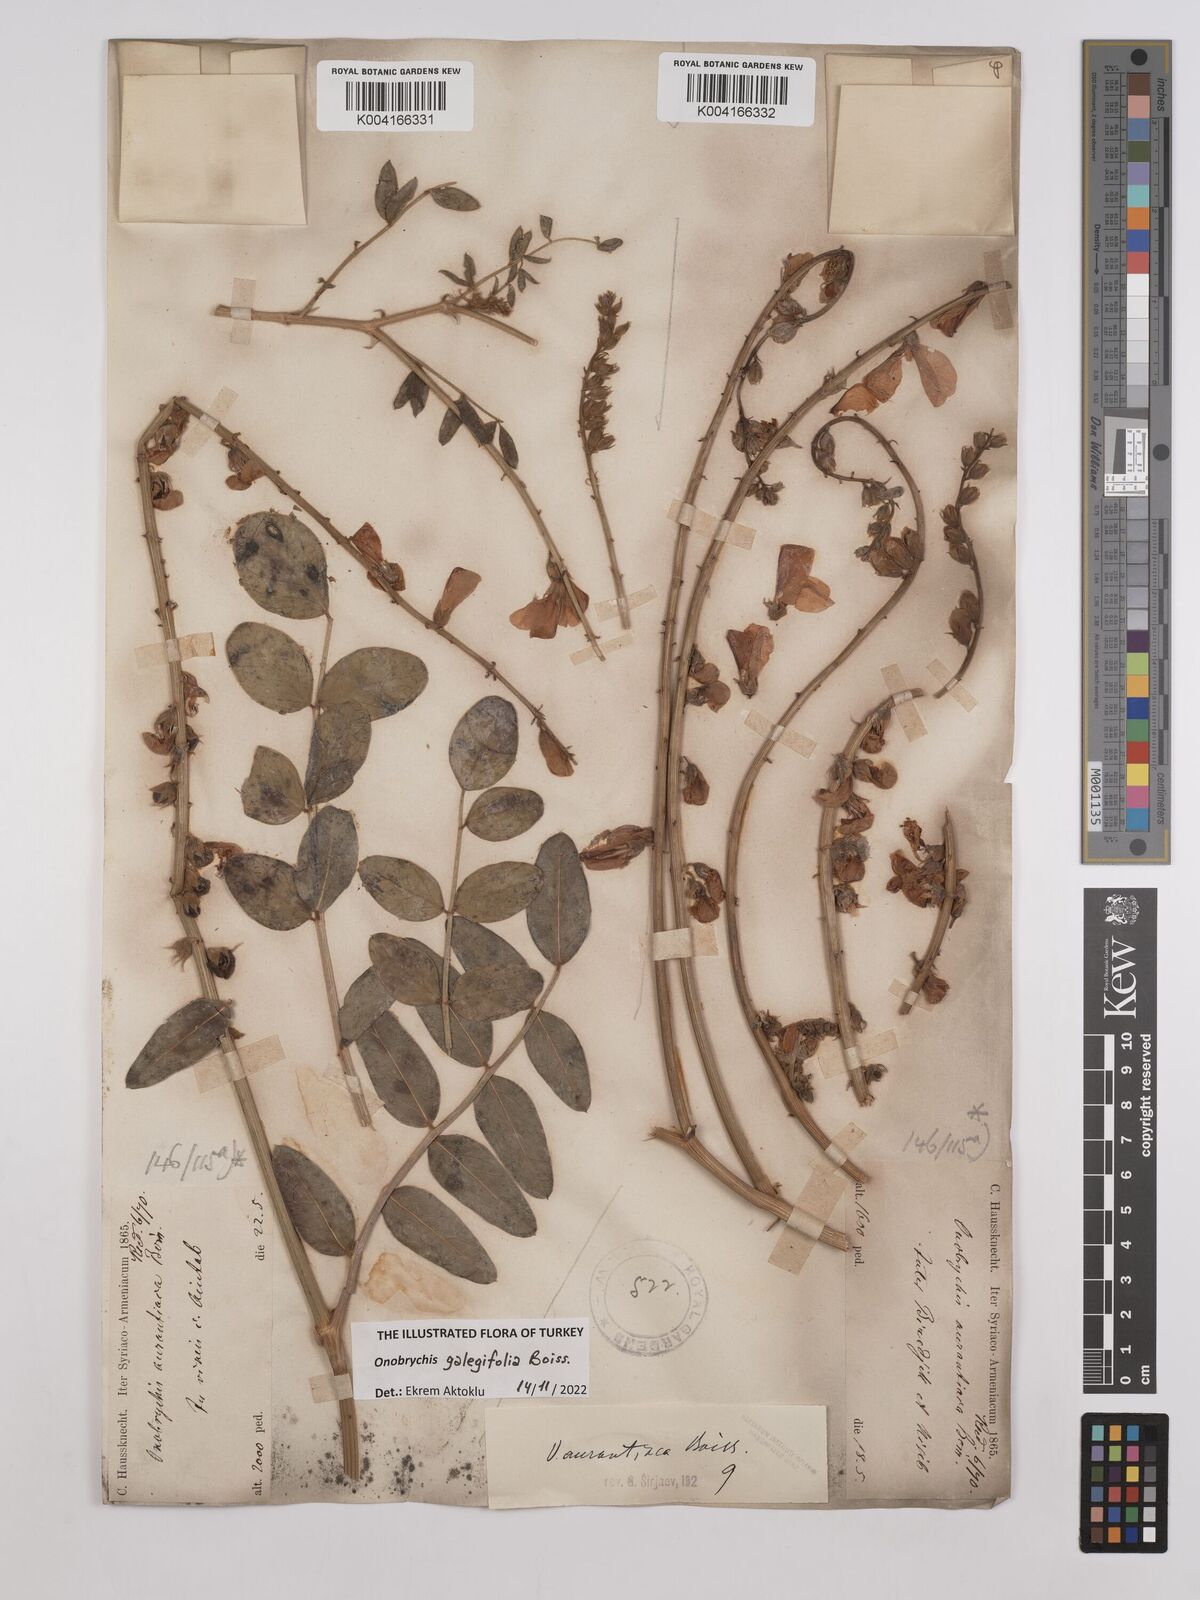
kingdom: Plantae
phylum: Tracheophyta
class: Magnoliopsida
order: Fabales
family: Fabaceae
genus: Onobrychis
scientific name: Onobrychis galegifolia
